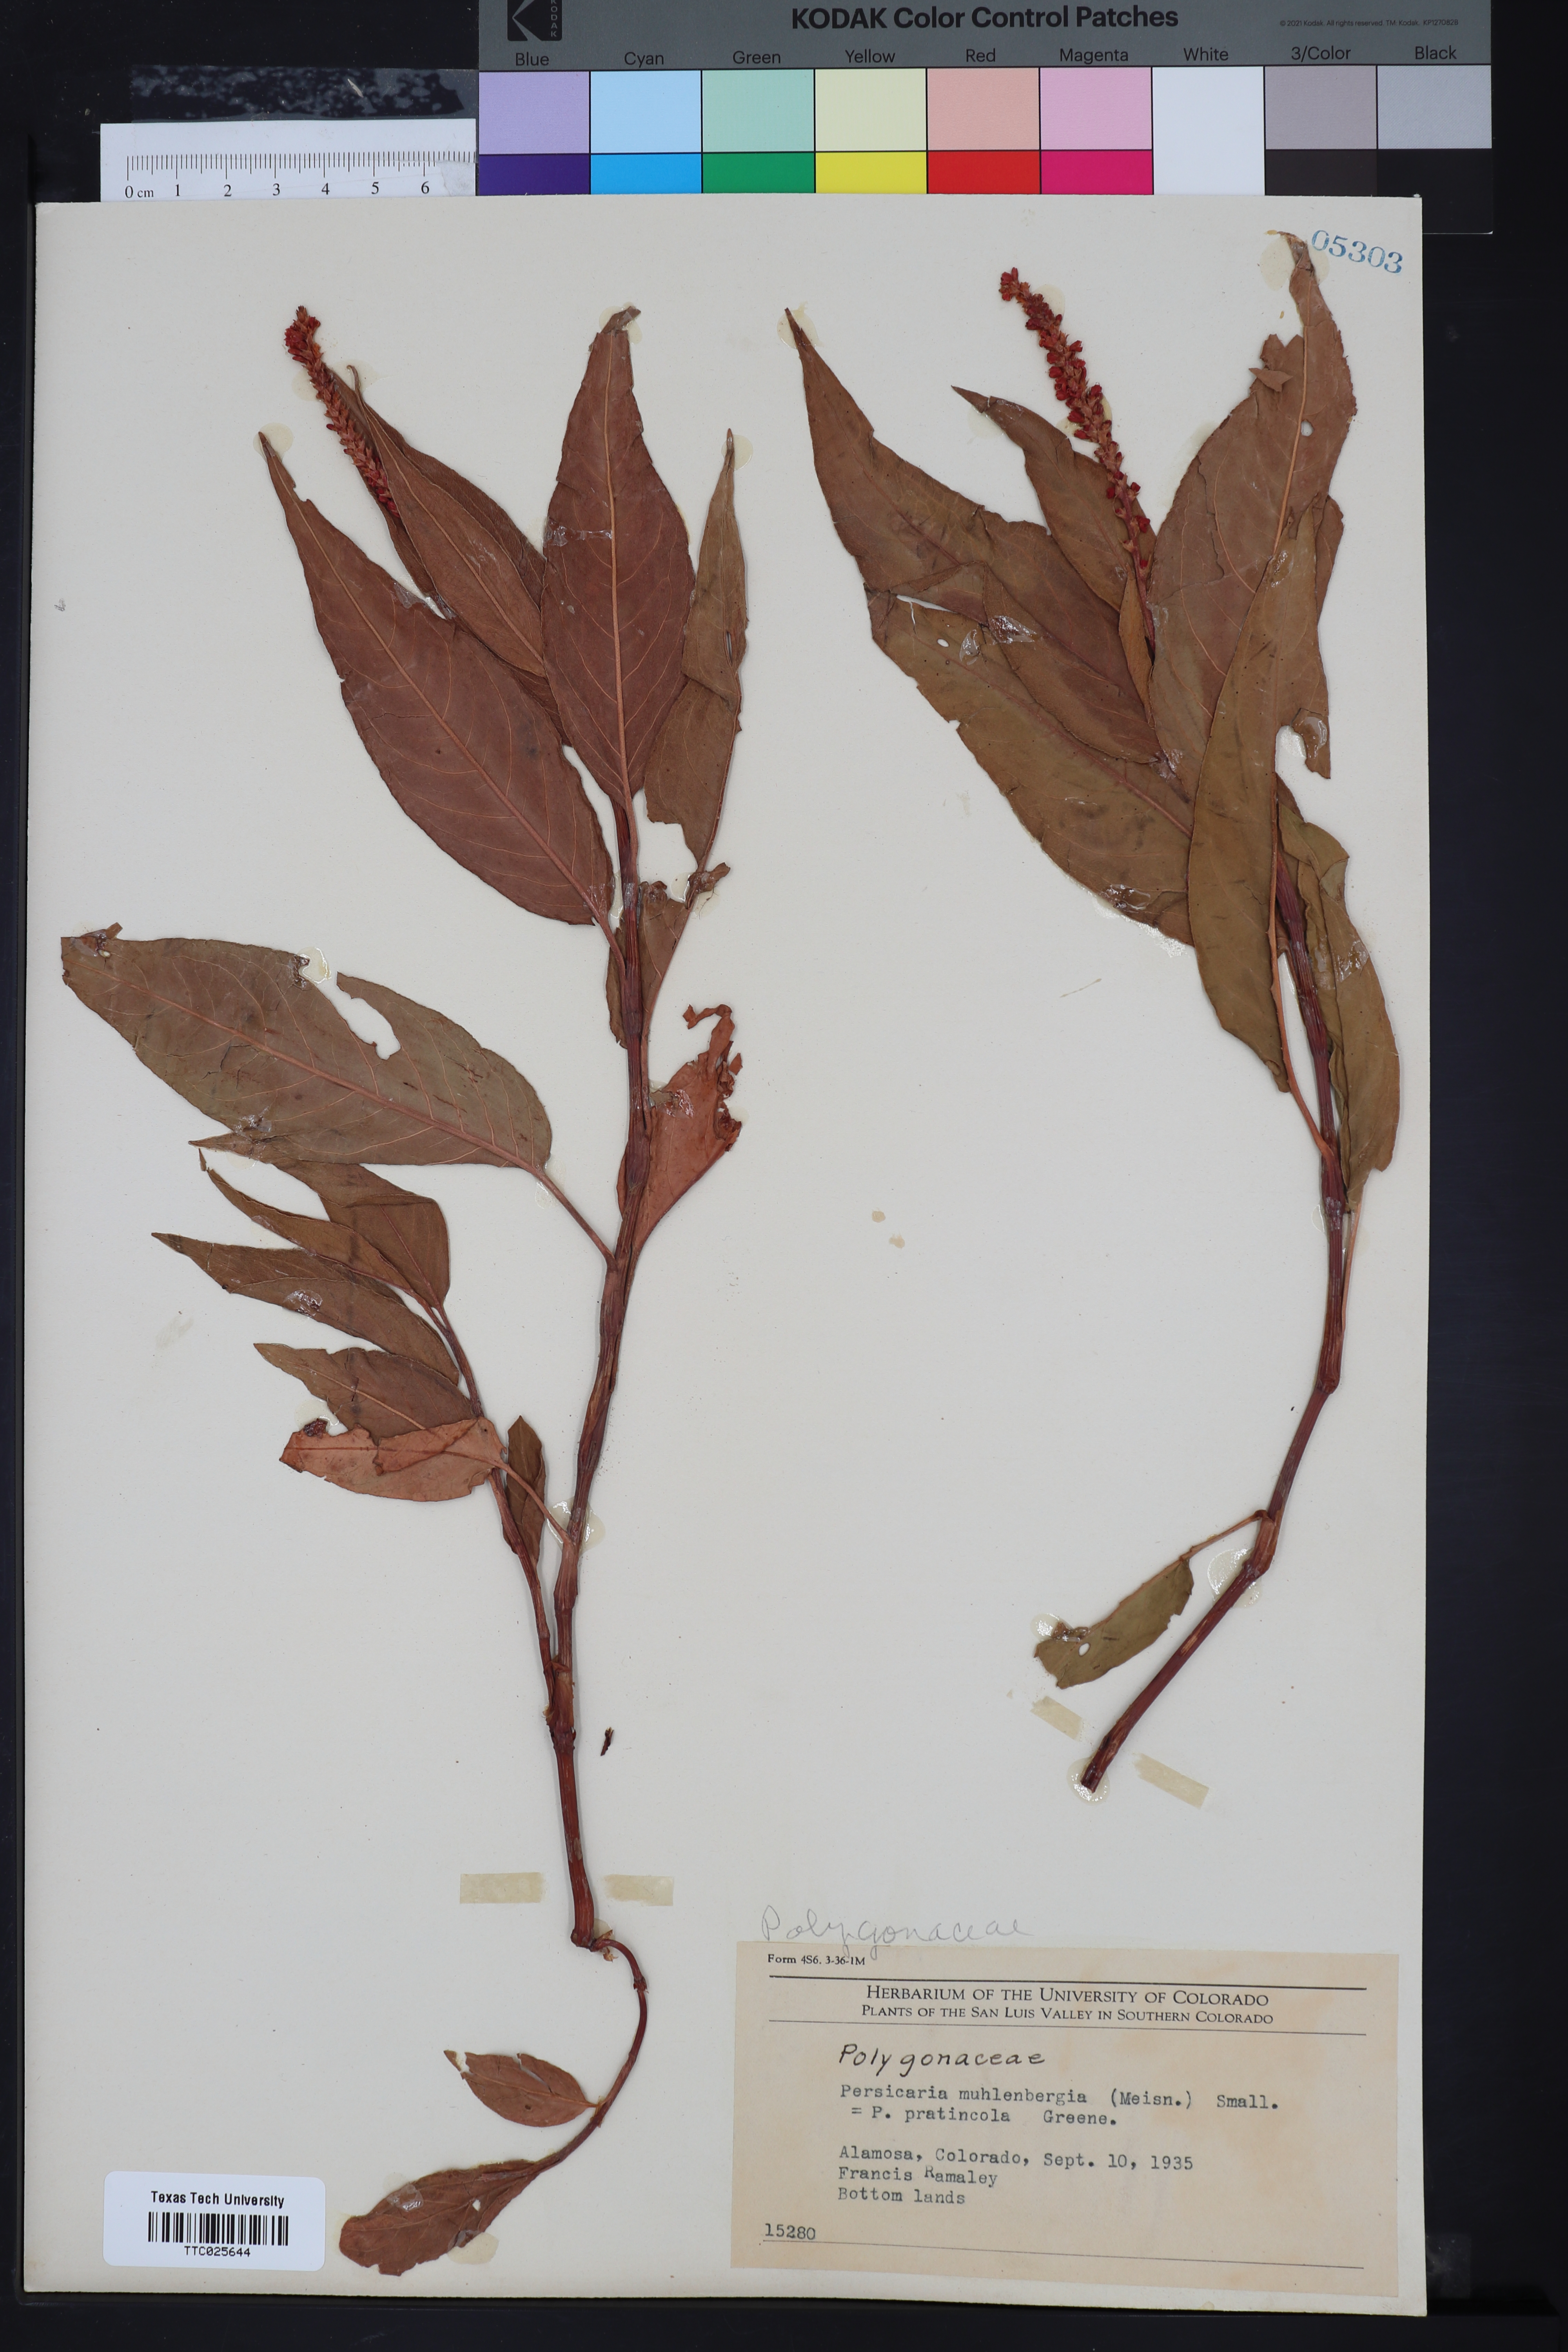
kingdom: Plantae
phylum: Tracheophyta
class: Magnoliopsida
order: Caryophyllales
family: Polygonaceae
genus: Persicaria
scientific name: Persicaria amphibia
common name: Amphibious bistort
